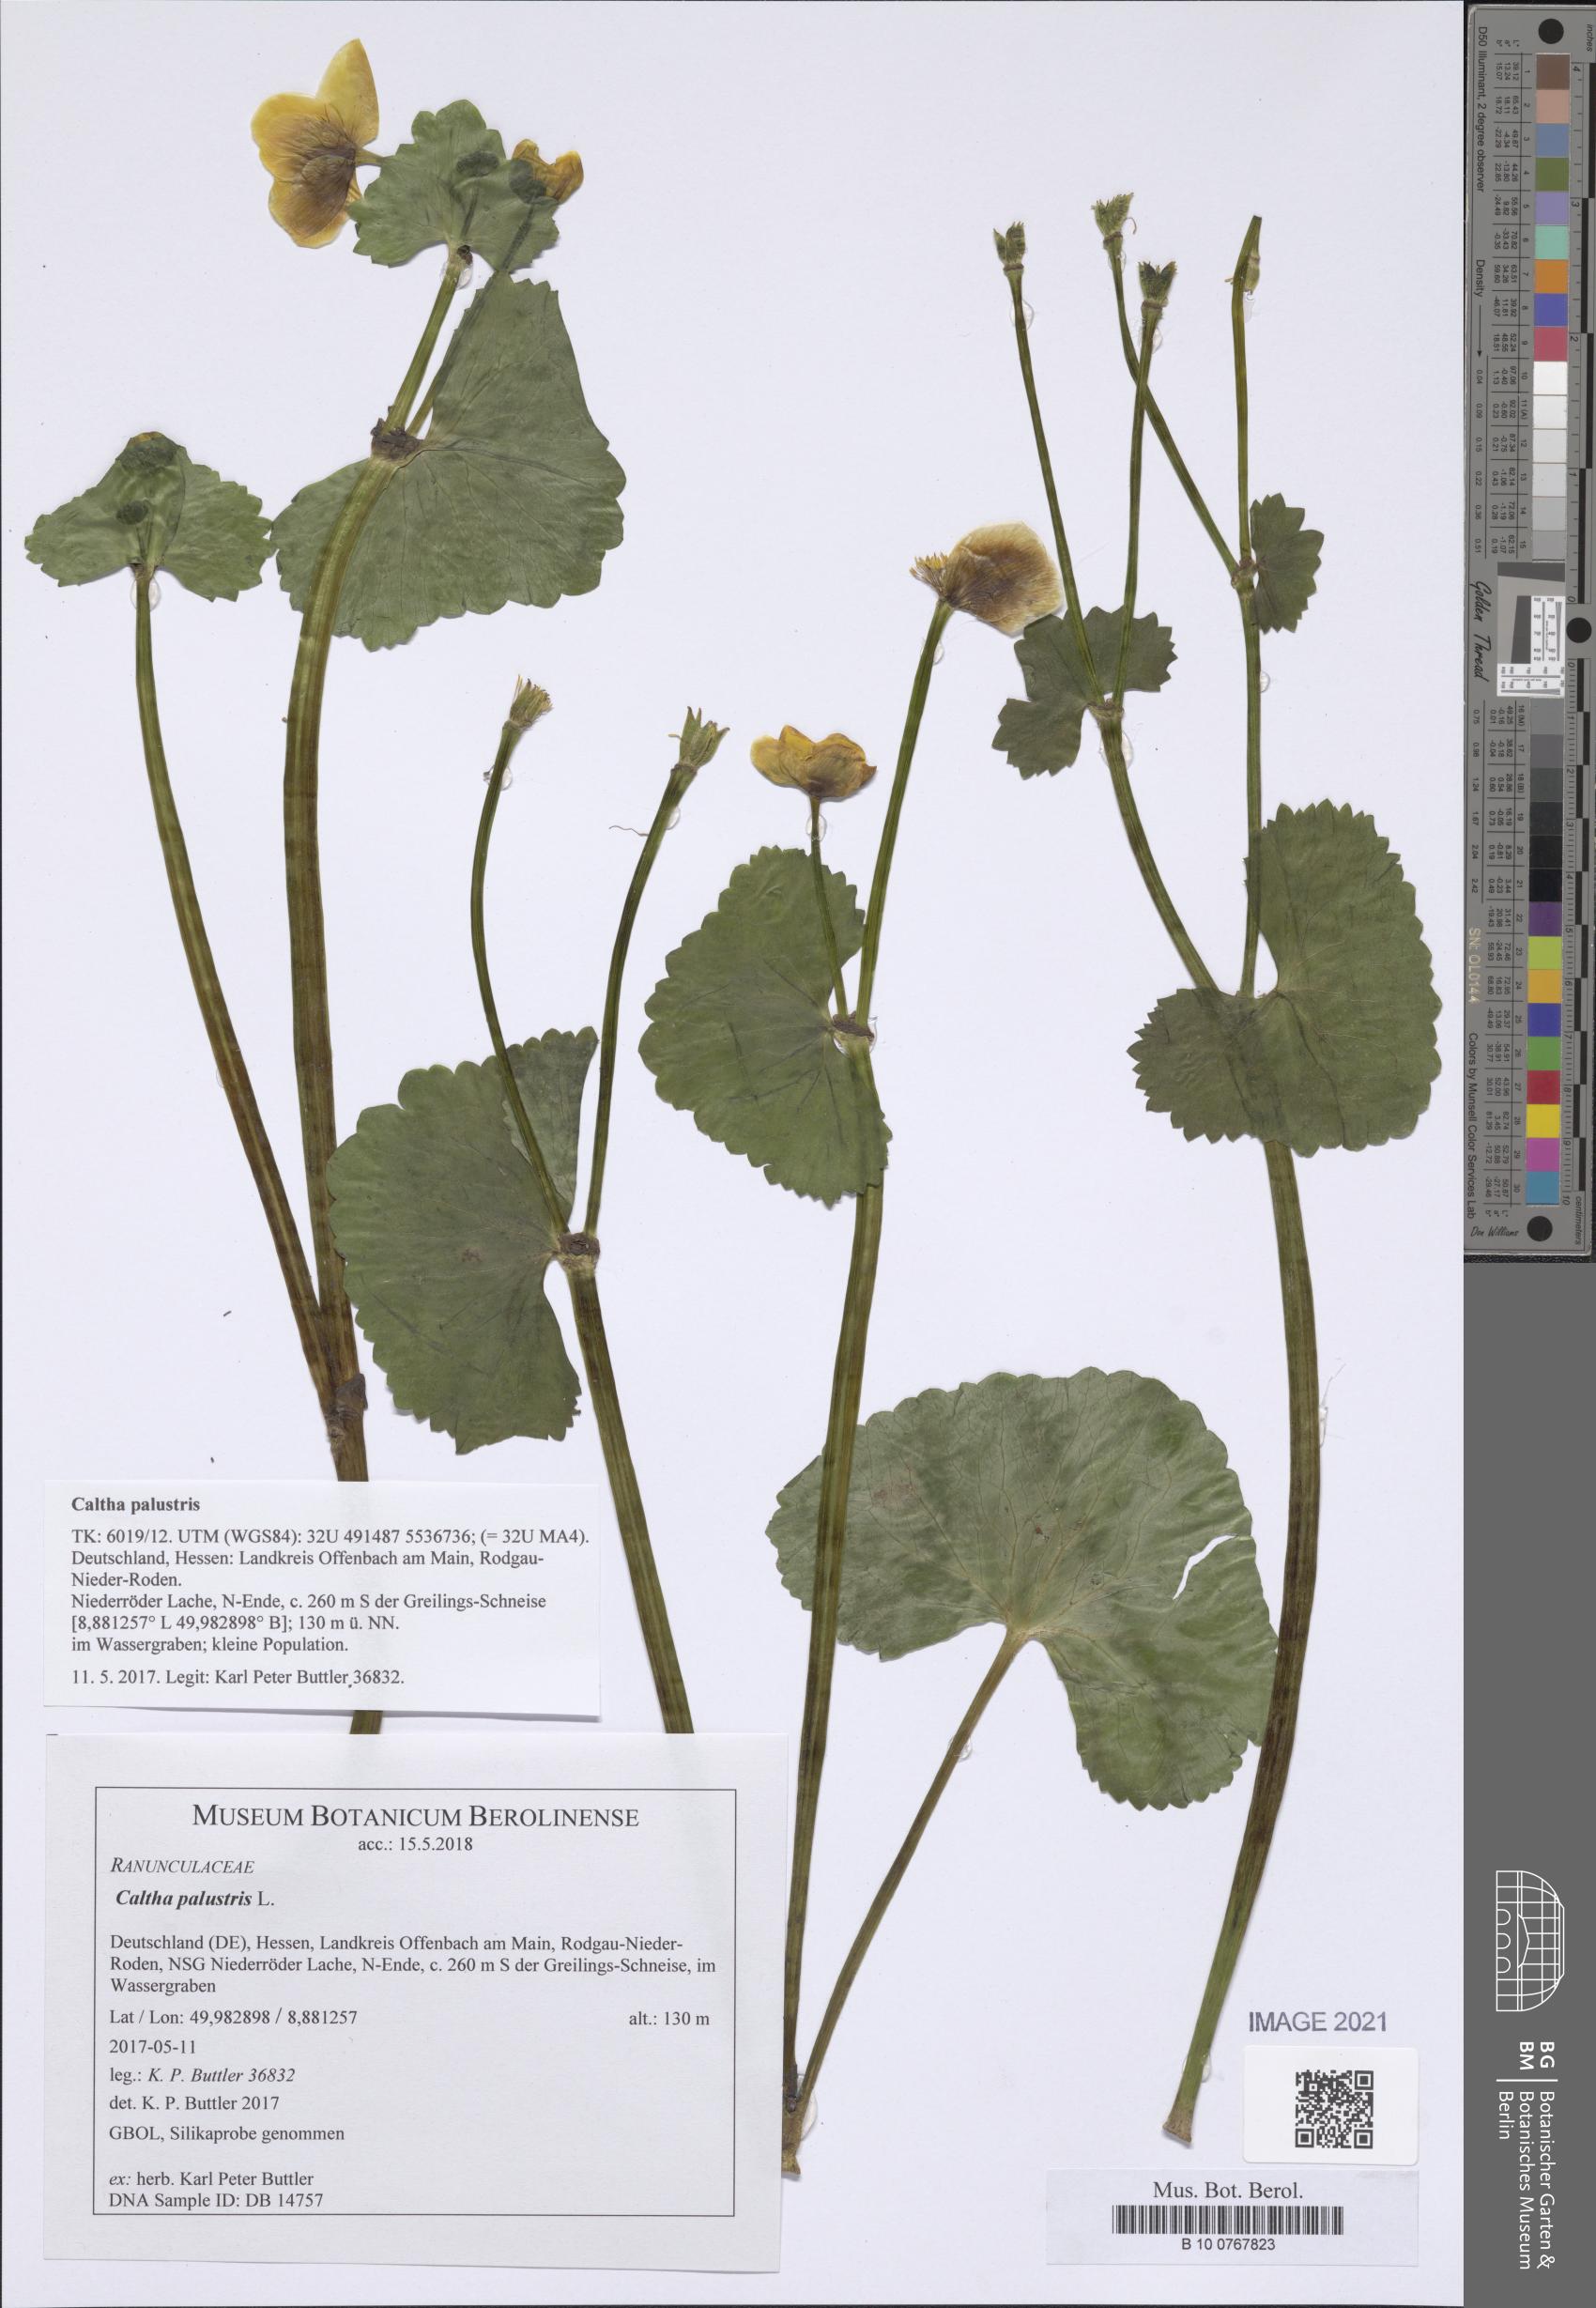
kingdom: Plantae
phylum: Tracheophyta
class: Magnoliopsida
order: Ranunculales
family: Ranunculaceae
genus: Caltha
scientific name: Caltha palustris
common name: Marsh marigold
